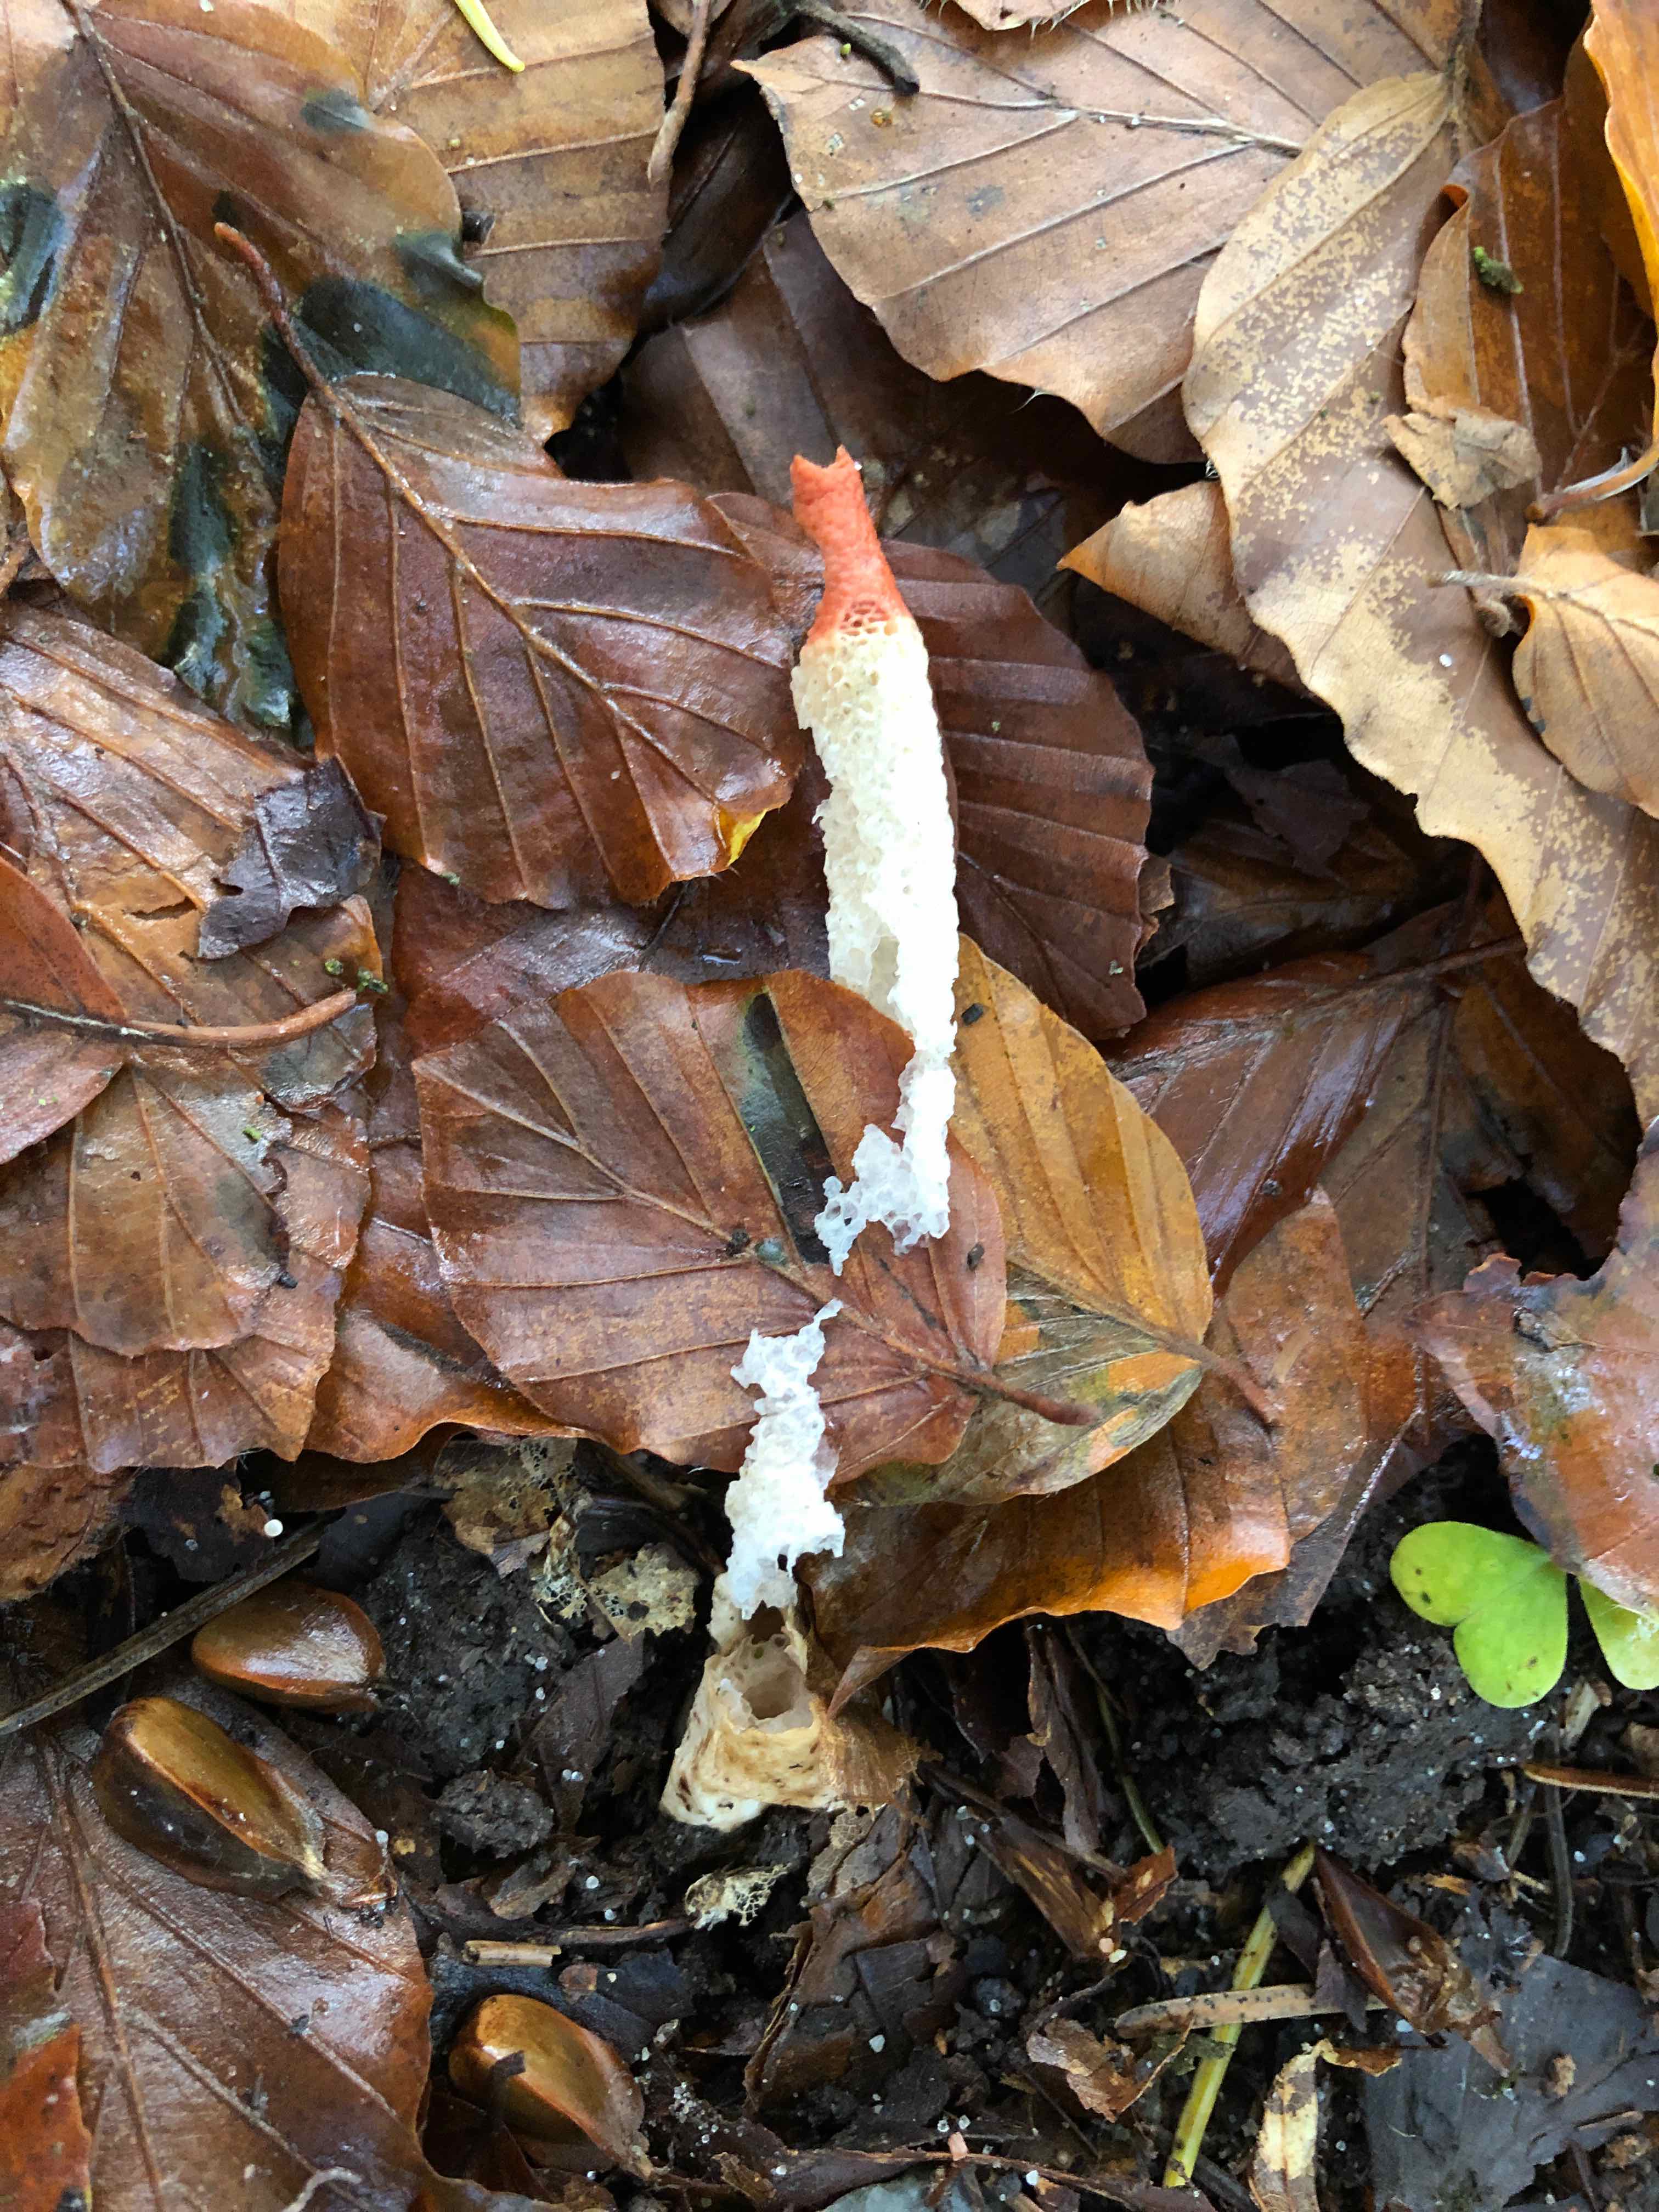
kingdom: Fungi
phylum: Basidiomycota
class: Agaricomycetes
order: Phallales
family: Phallaceae
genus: Mutinus
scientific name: Mutinus caninus
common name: hunde-stinksvamp
